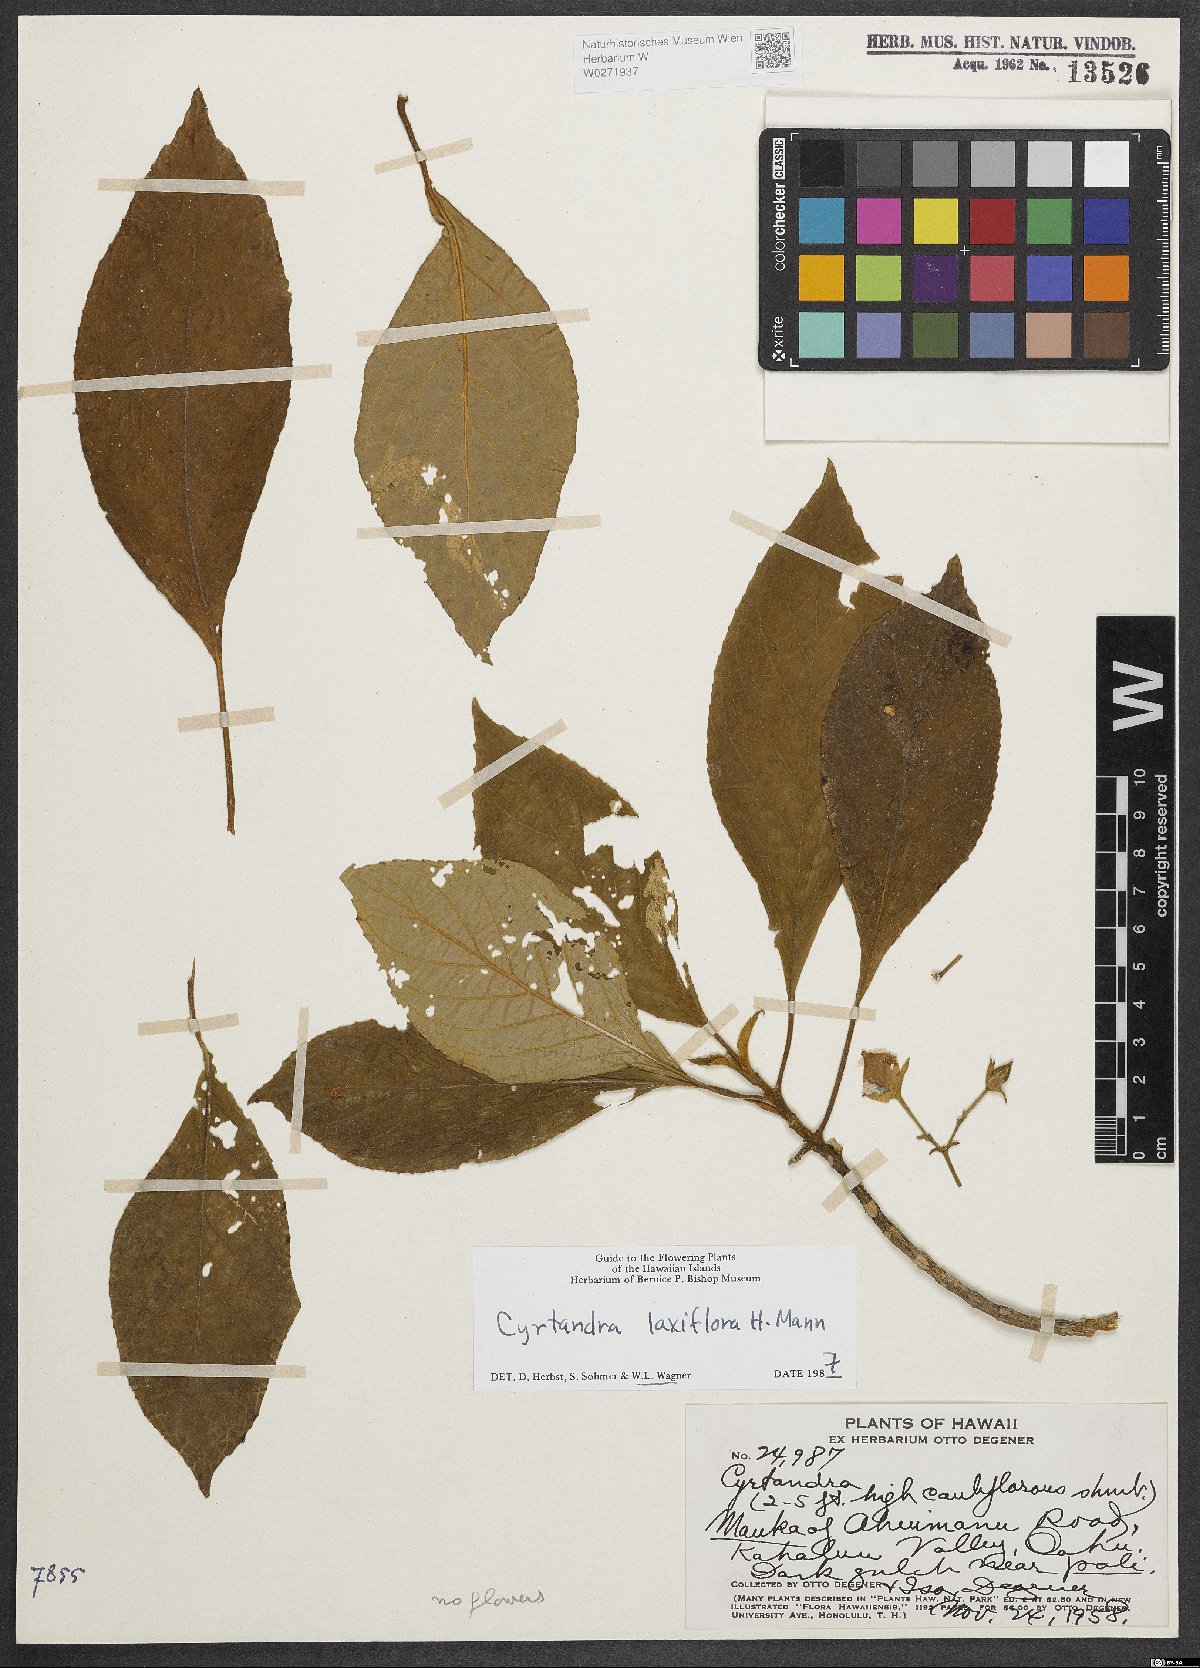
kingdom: Plantae
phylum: Tracheophyta
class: Magnoliopsida
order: Lamiales
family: Gesneriaceae
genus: Cyrtandra
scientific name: Cyrtandra laxiflora
